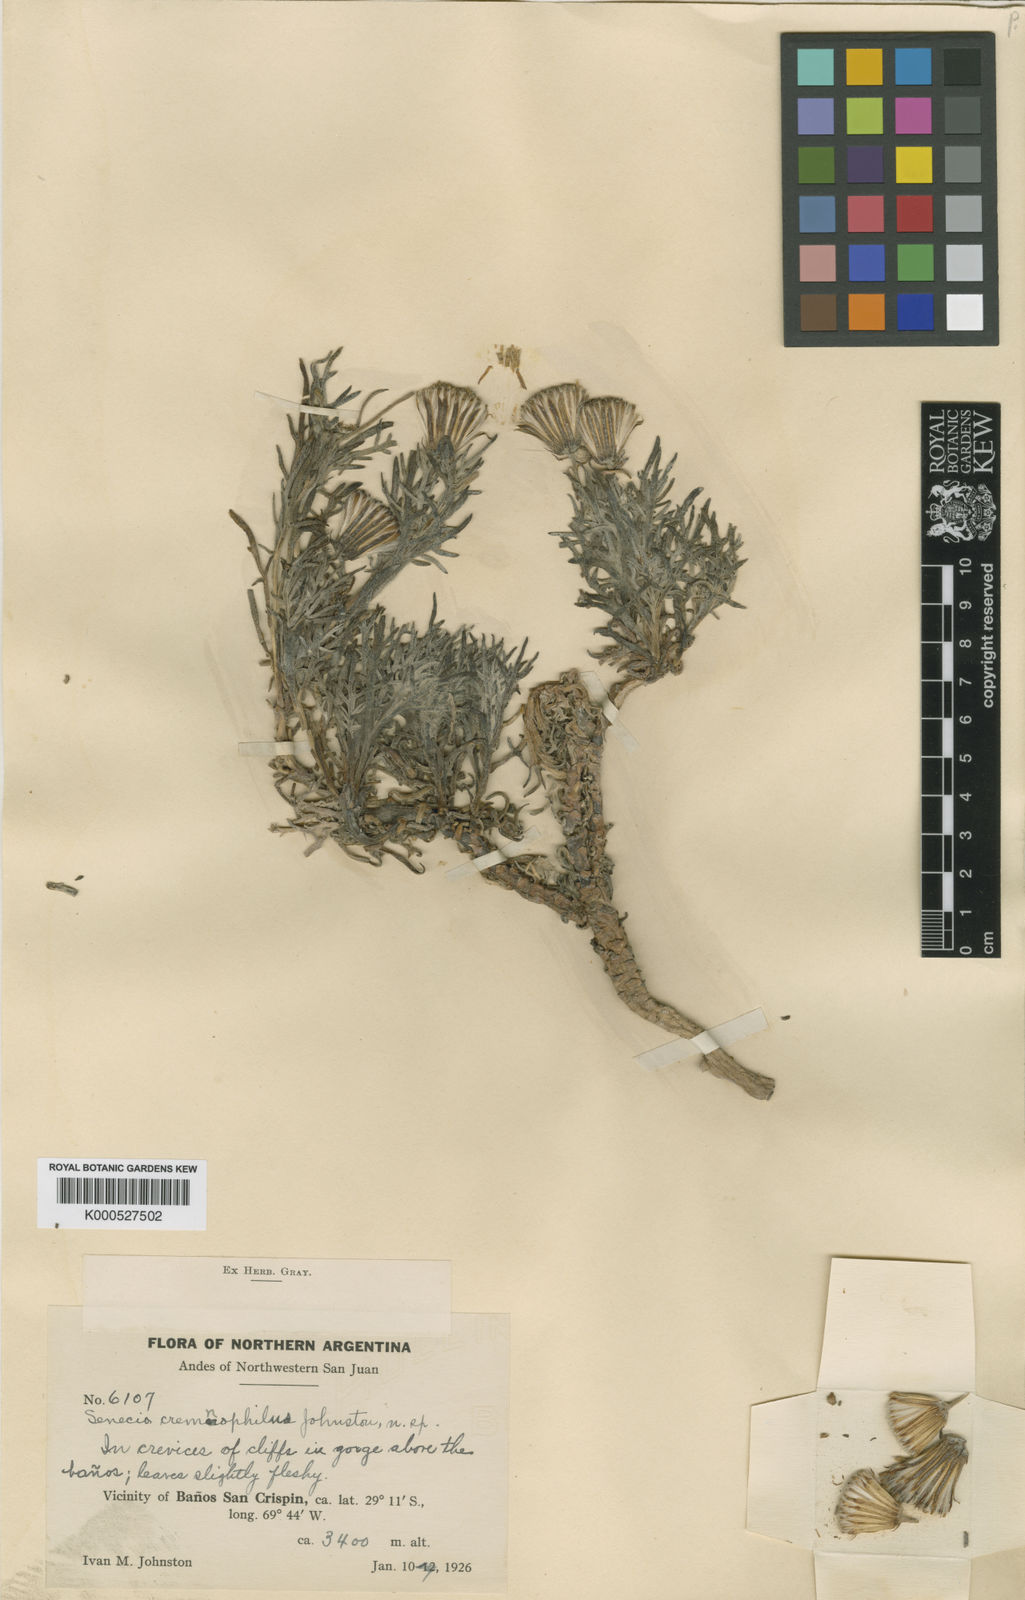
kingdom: Plantae
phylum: Tracheophyta
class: Magnoliopsida
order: Asterales
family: Asteraceae
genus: Senecio
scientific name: Senecio cremnophilus
